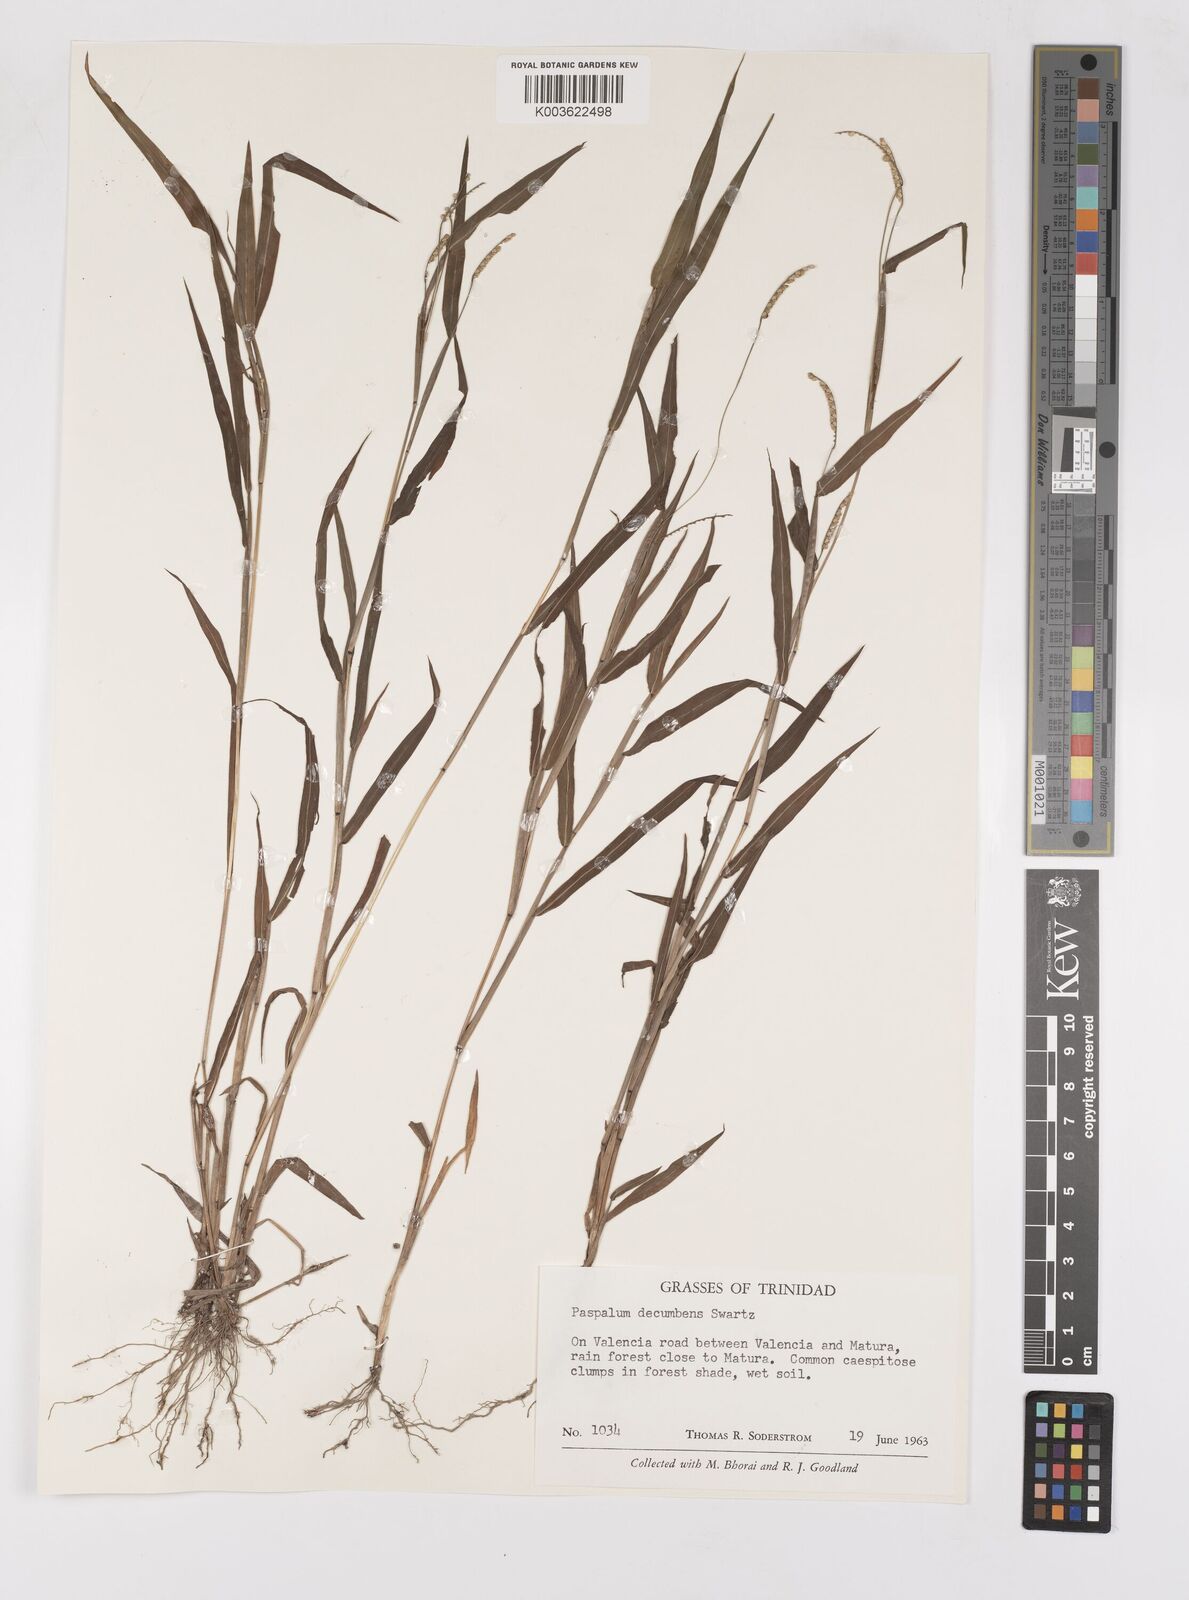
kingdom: Plantae
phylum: Tracheophyta
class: Liliopsida
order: Poales
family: Poaceae
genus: Paspalum
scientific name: Paspalum decumbens
